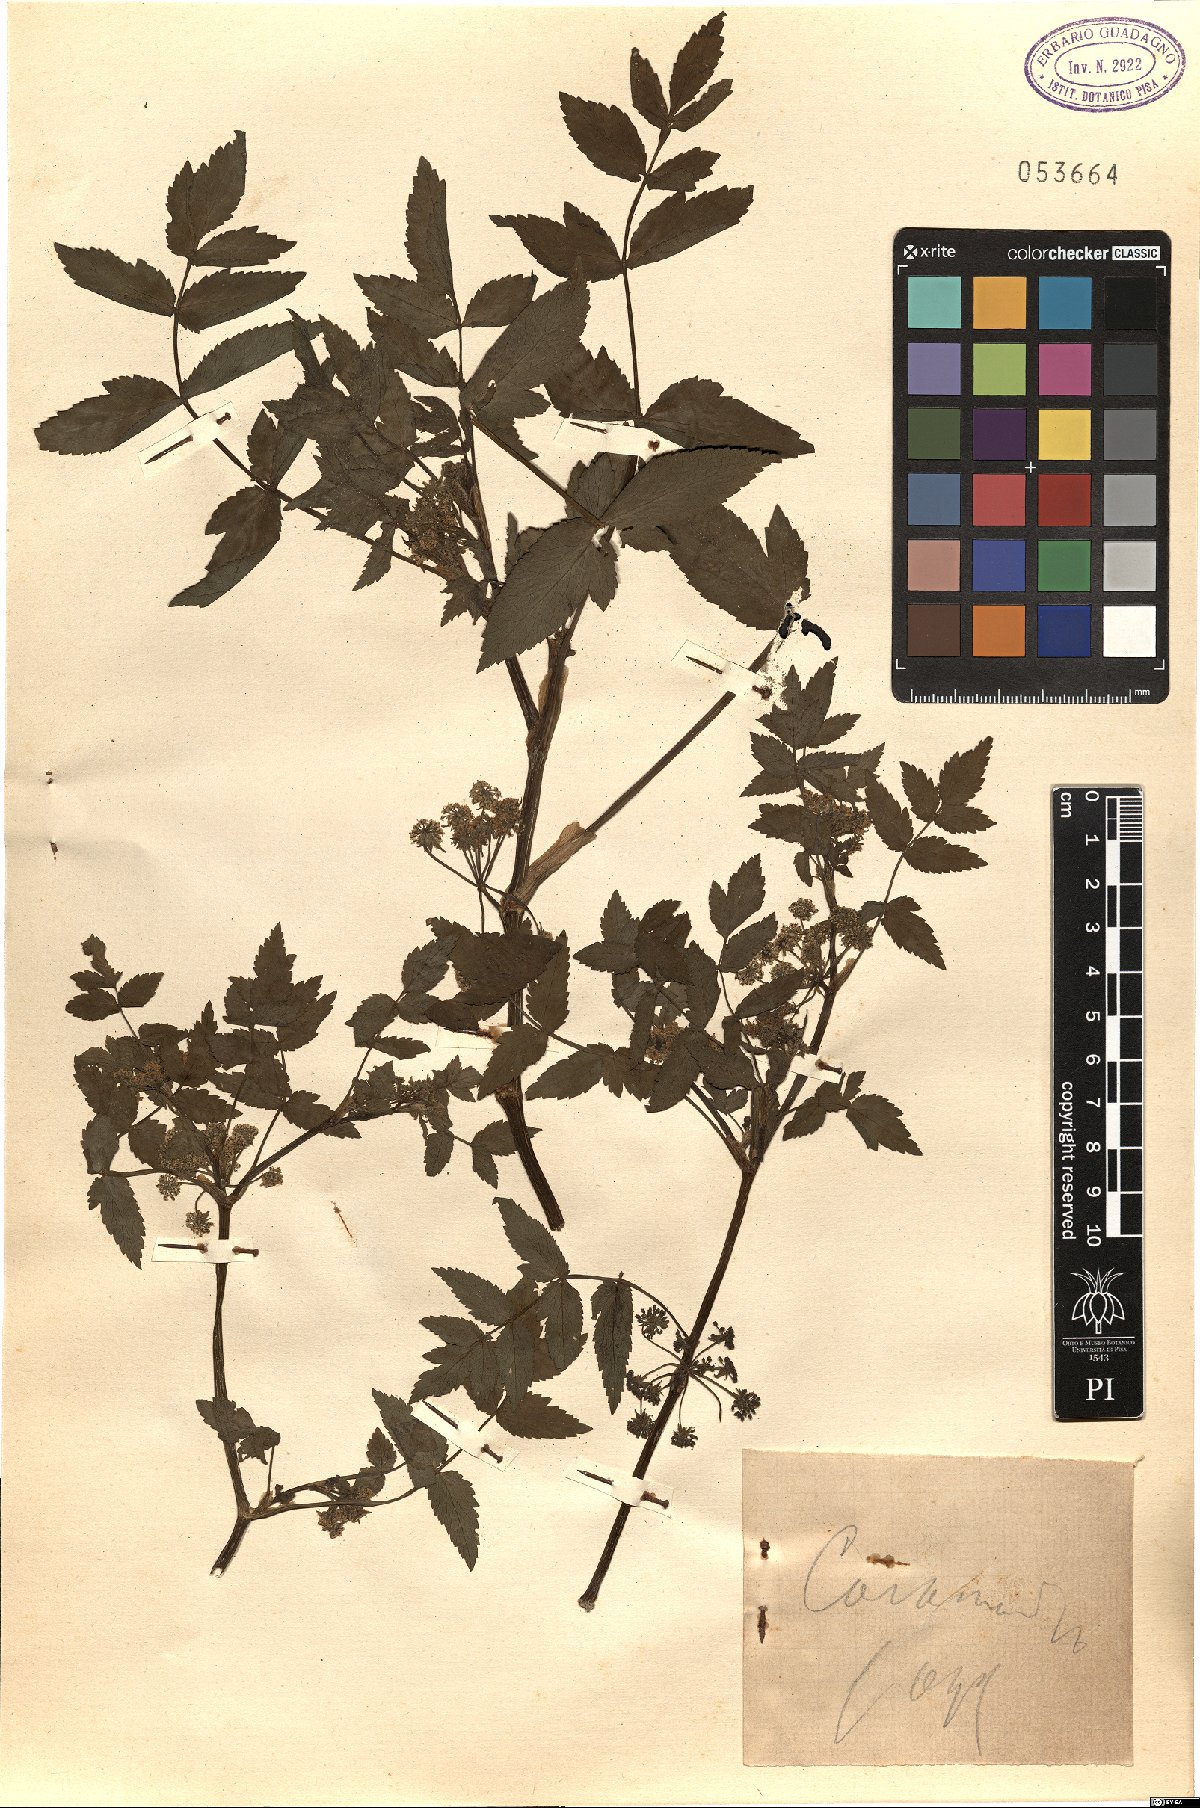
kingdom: Plantae
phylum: Tracheophyta
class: Magnoliopsida
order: Apiales
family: Apiaceae
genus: Helosciadium
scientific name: Helosciadium
